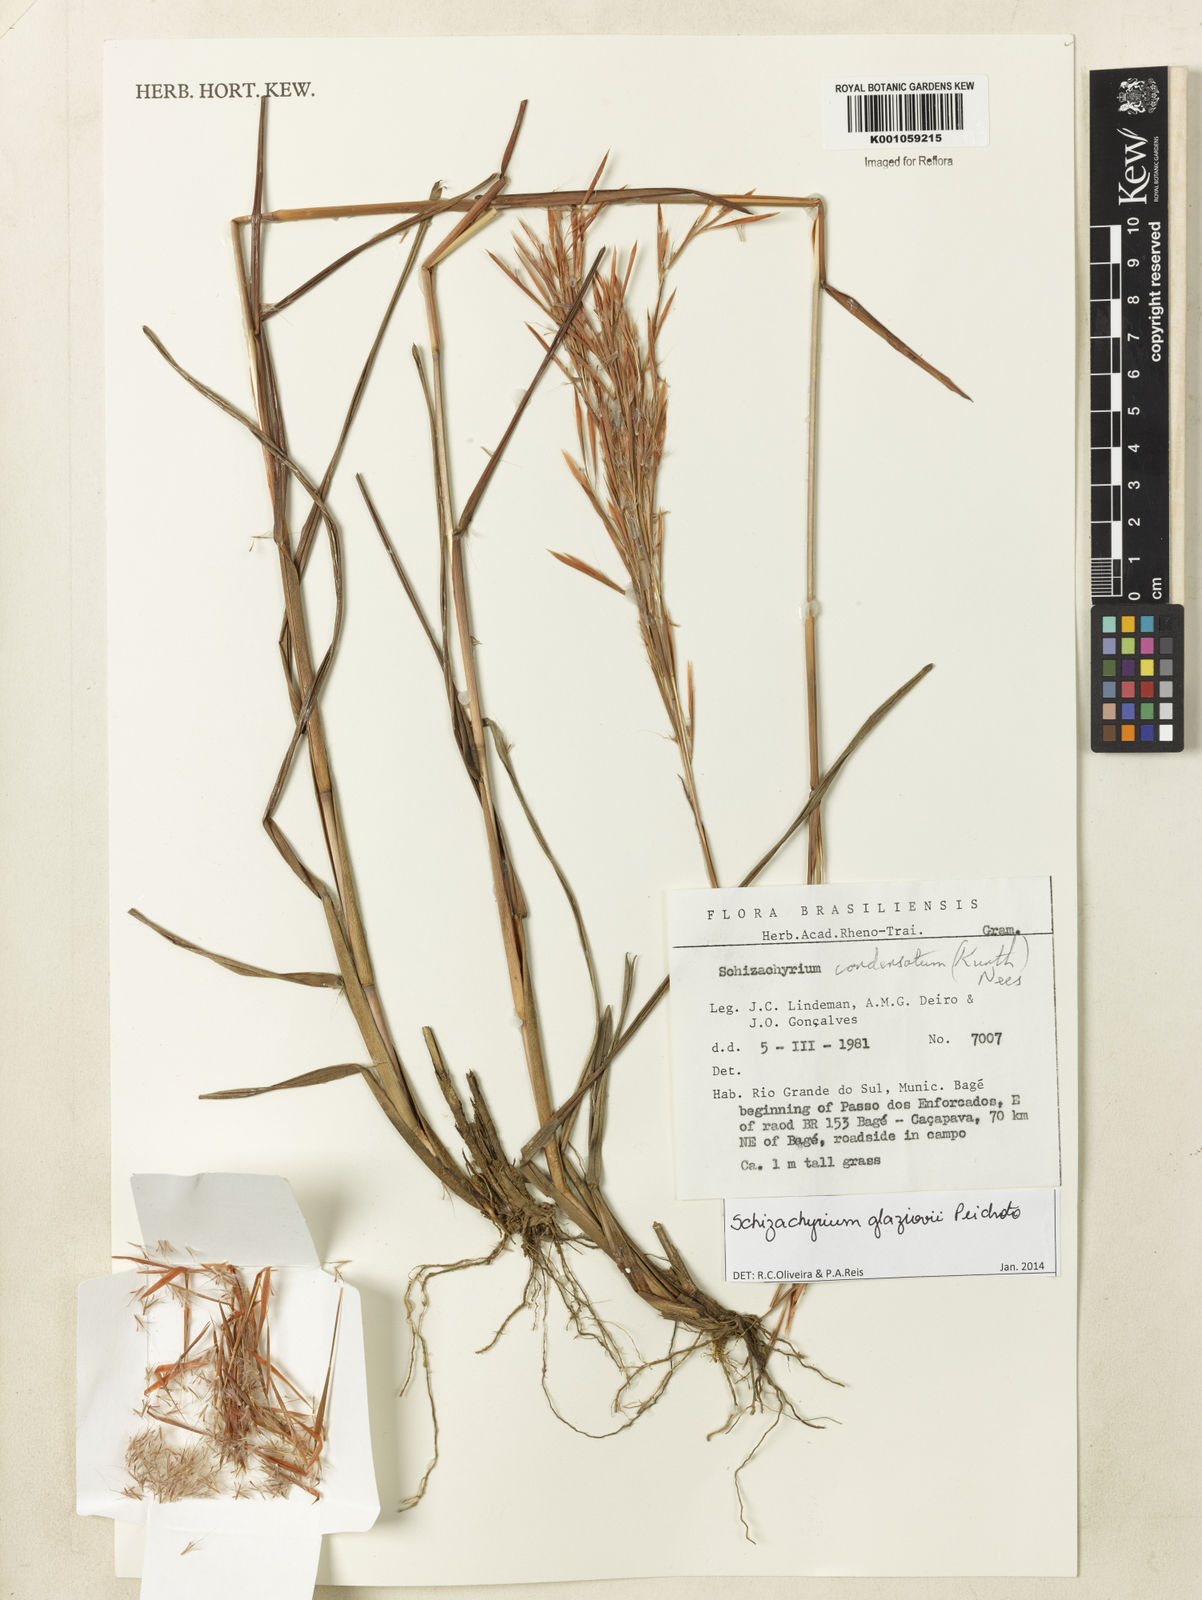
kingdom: Plantae
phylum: Tracheophyta
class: Liliopsida
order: Poales
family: Poaceae
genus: Schizachyrium
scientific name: Schizachyrium glaziovii
